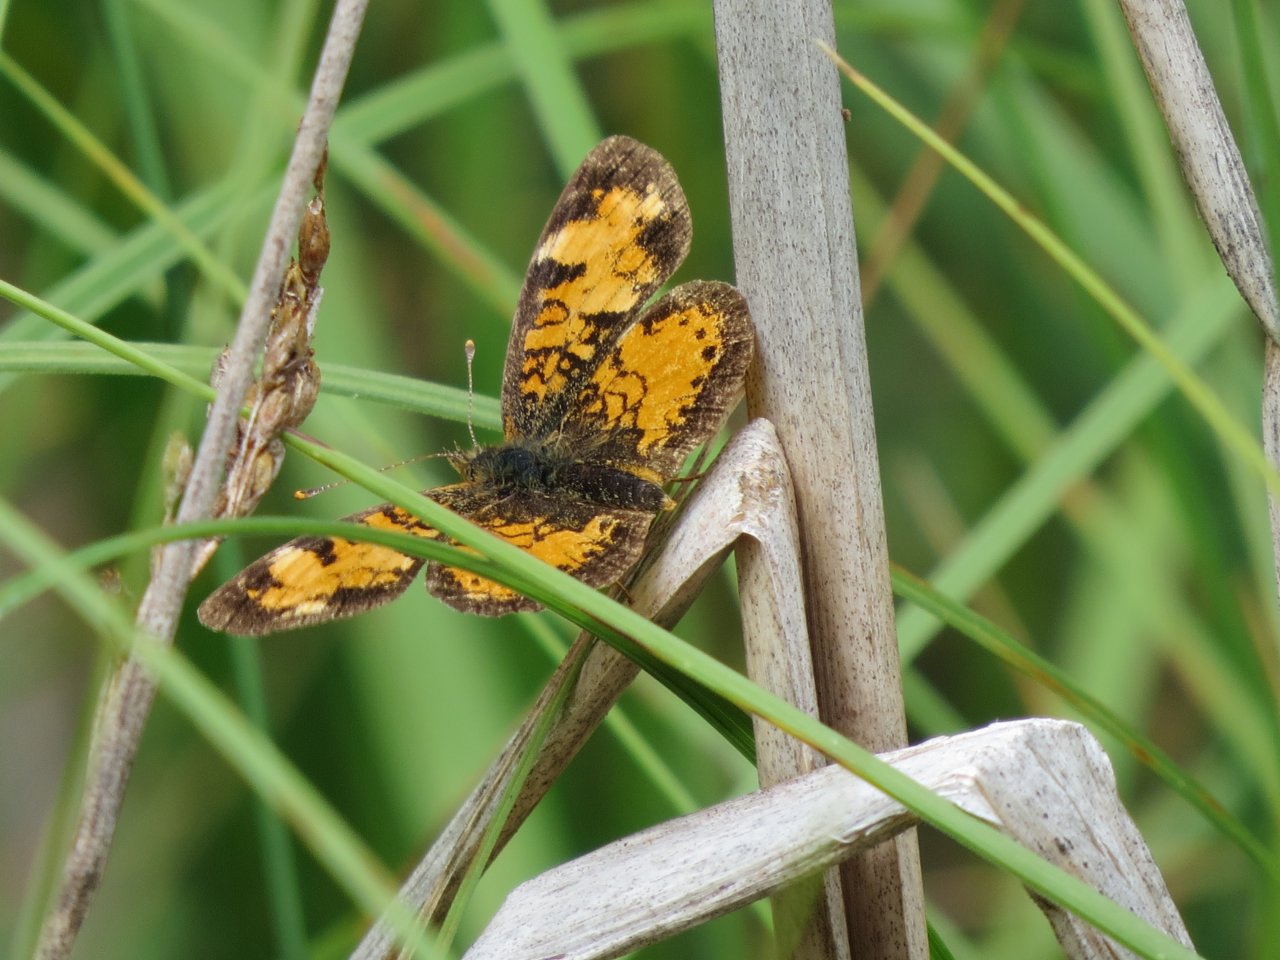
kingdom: Animalia
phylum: Arthropoda
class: Insecta
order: Lepidoptera
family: Nymphalidae
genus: Phyciodes
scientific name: Phyciodes tharos
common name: Northern Crescent
